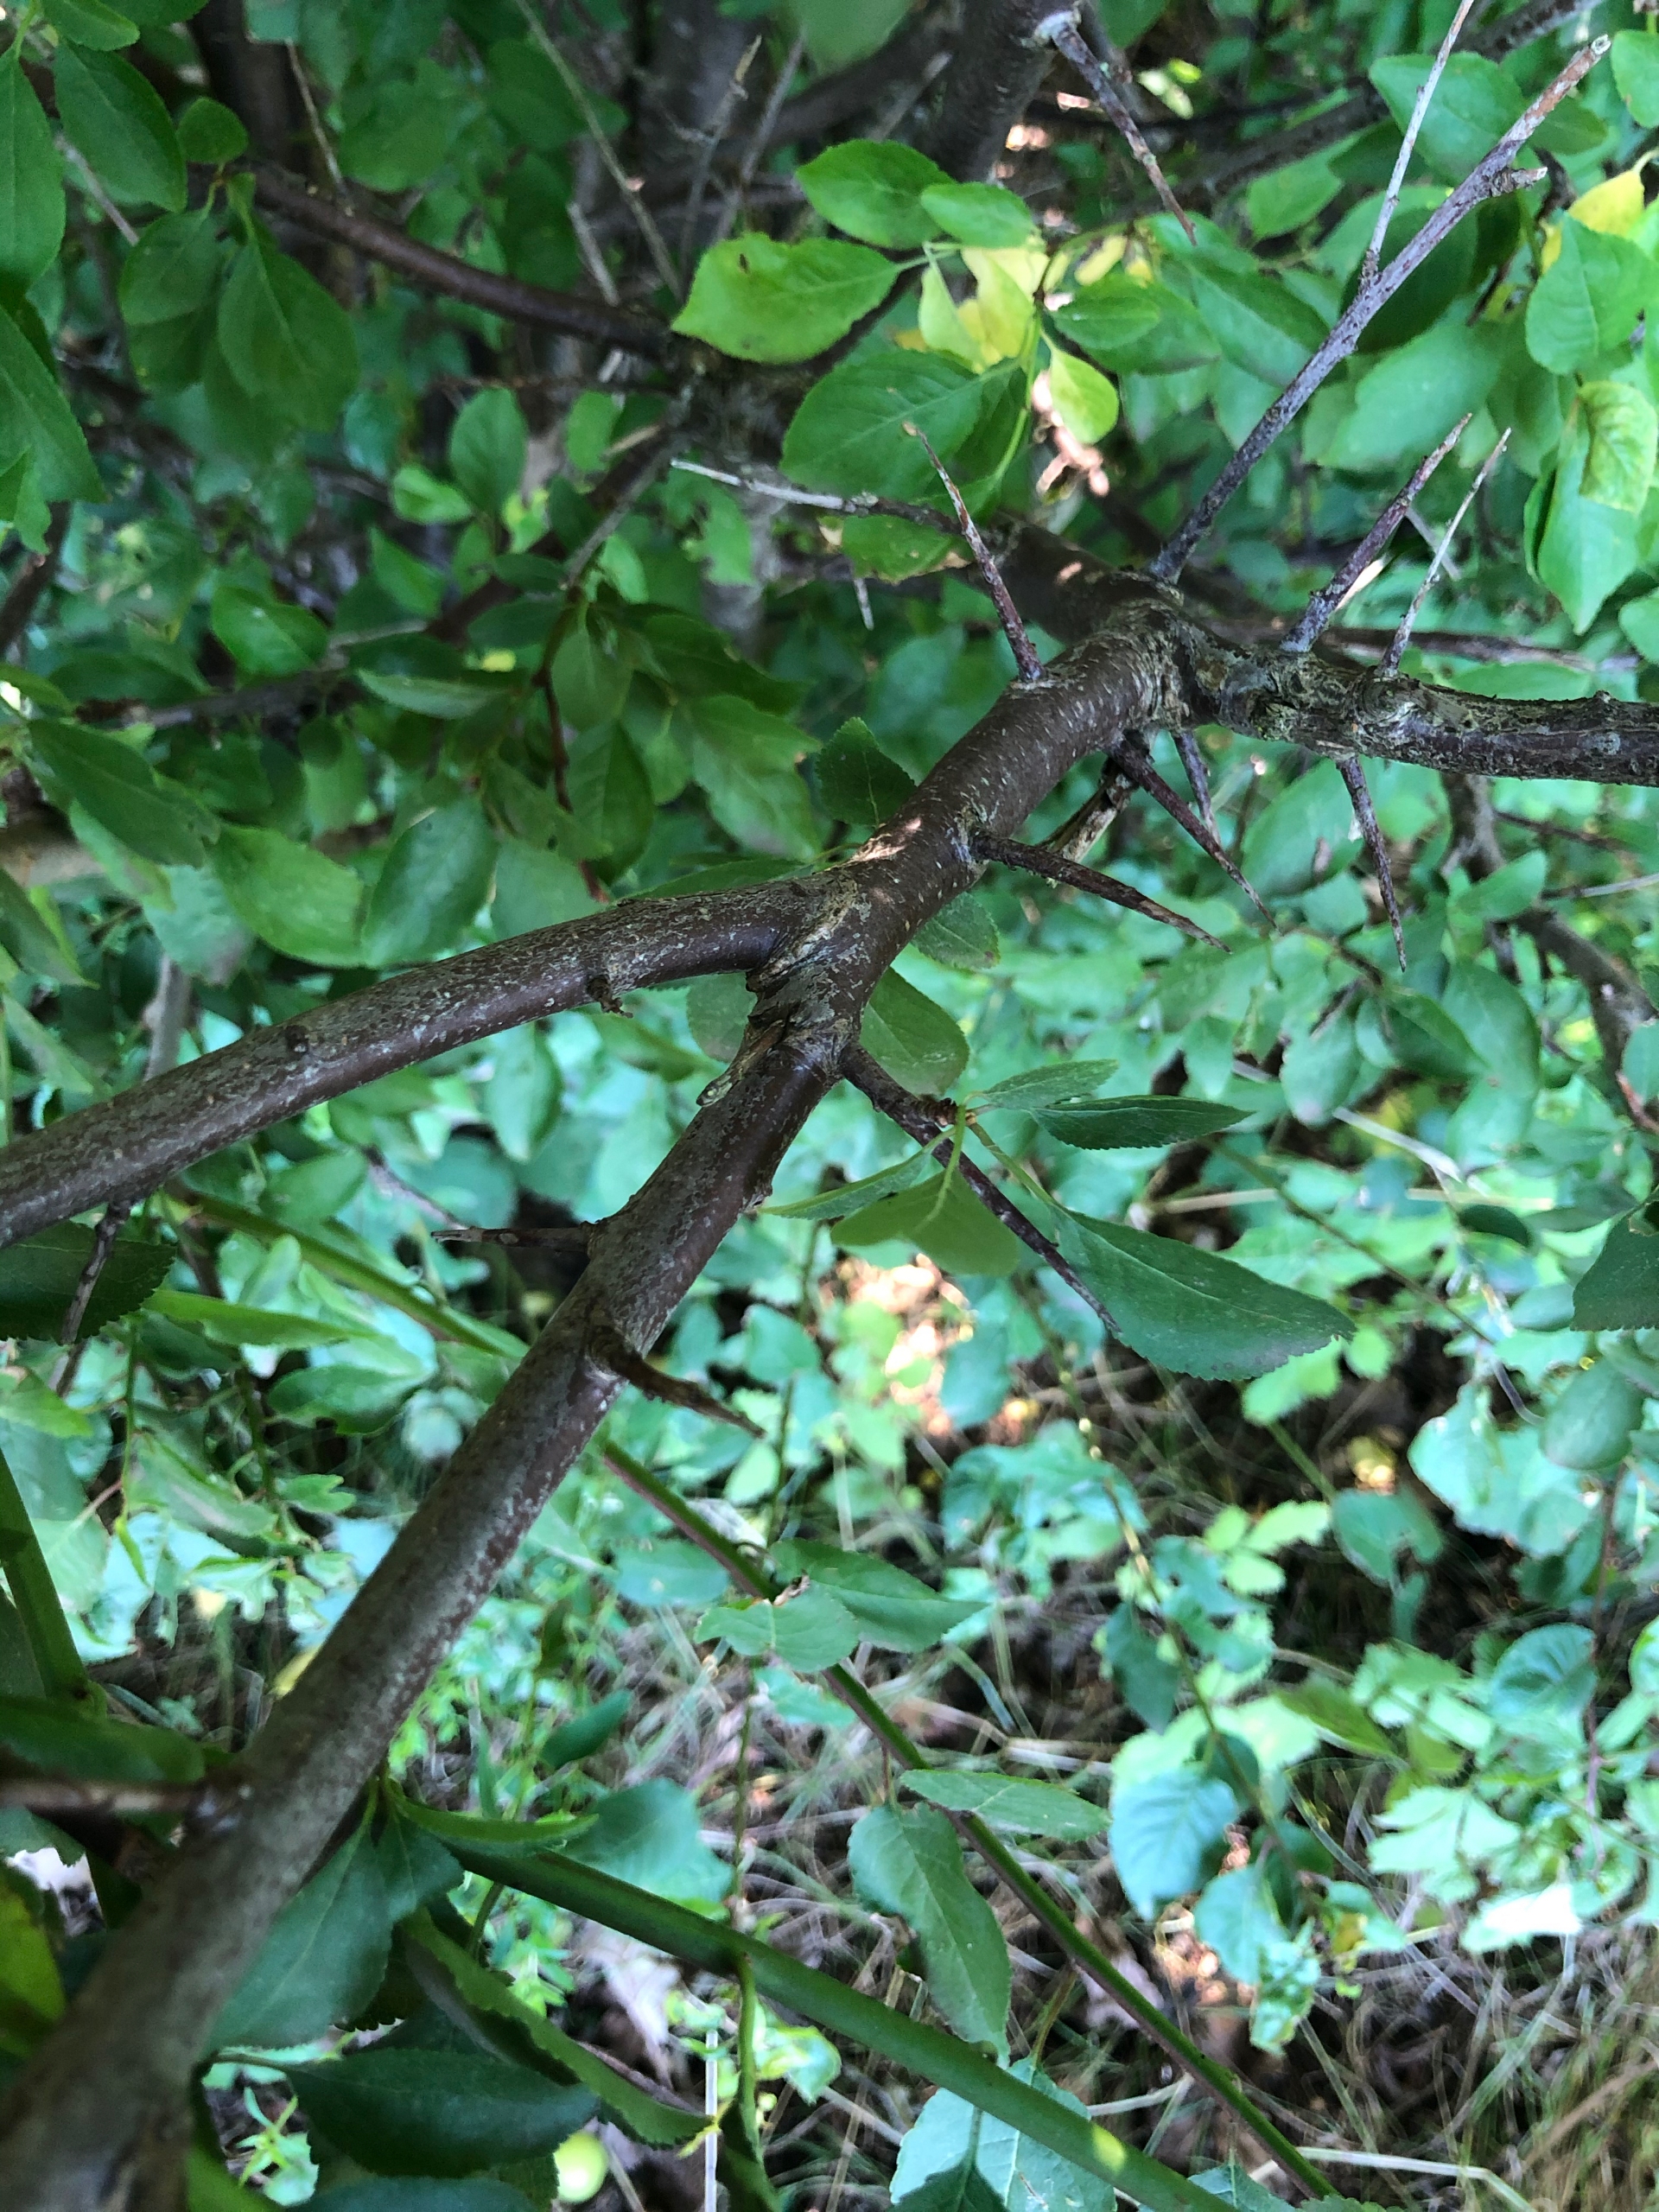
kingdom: Plantae
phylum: Tracheophyta
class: Magnoliopsida
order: Rosales
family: Rosaceae
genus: Prunus
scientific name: Prunus cerasifera
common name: Mirabel
